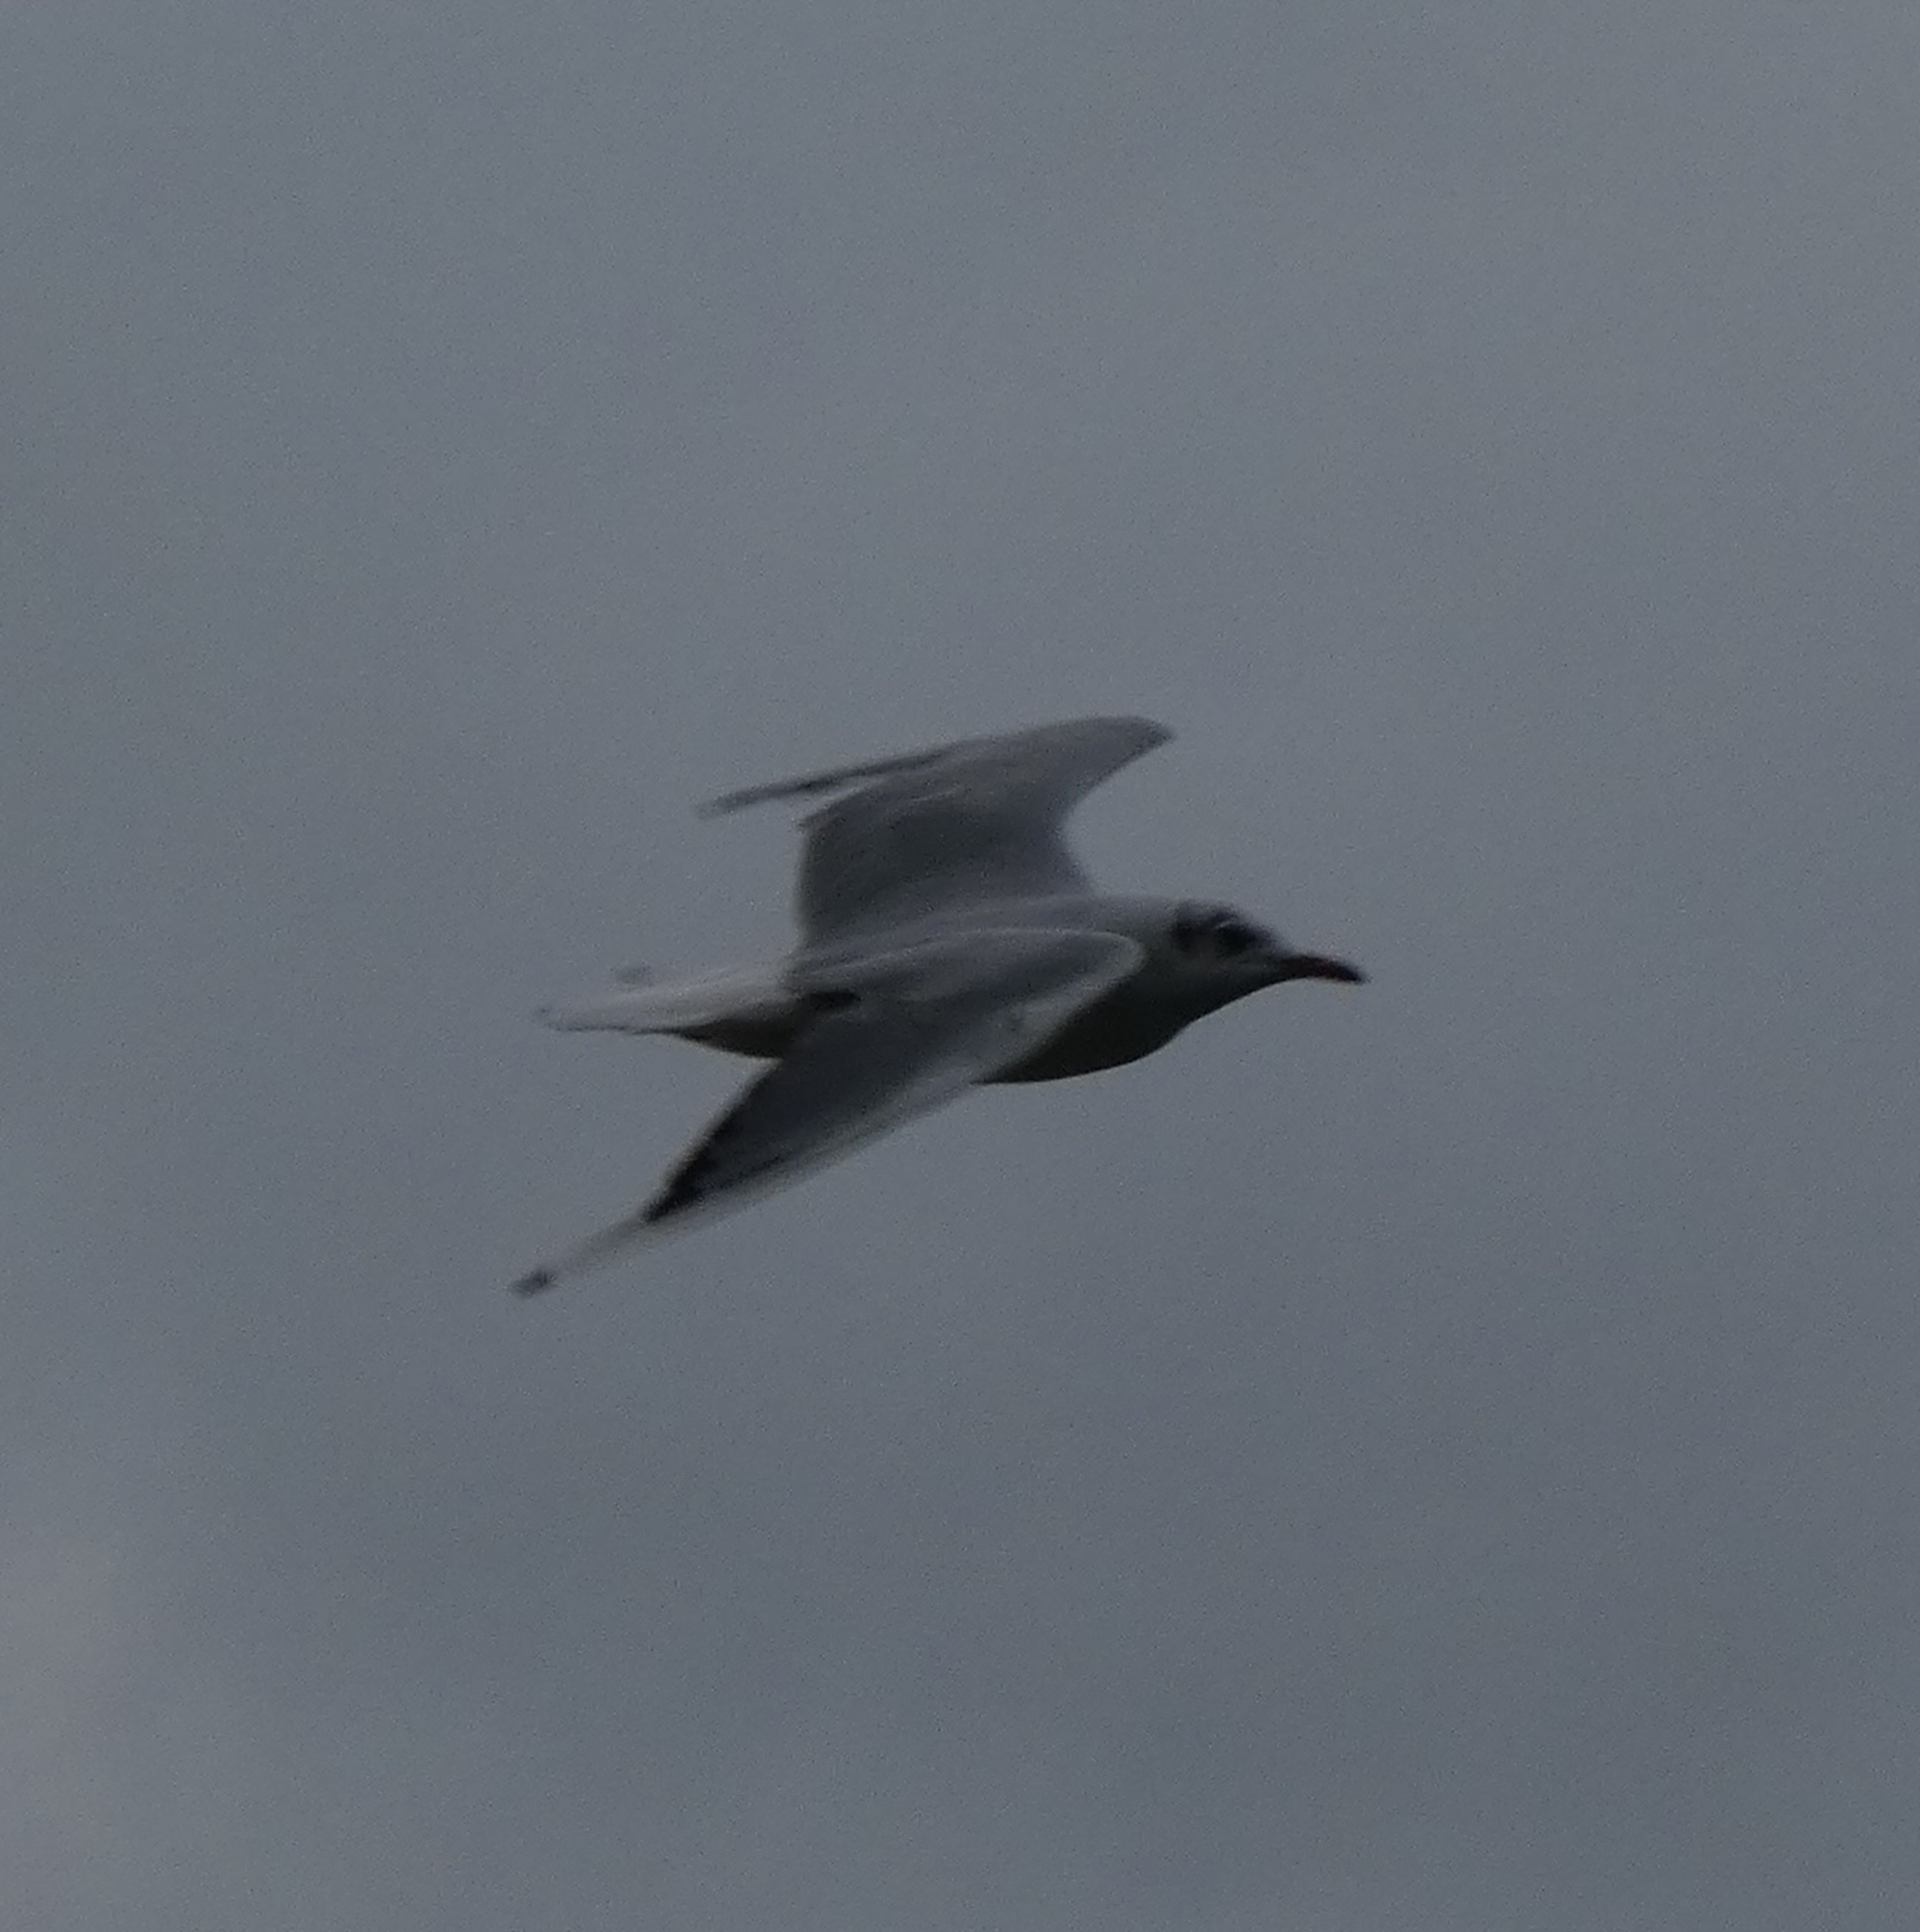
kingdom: Animalia
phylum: Chordata
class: Aves
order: Charadriiformes
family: Laridae
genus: Chroicocephalus
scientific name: Chroicocephalus ridibundus
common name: Hættemåge
